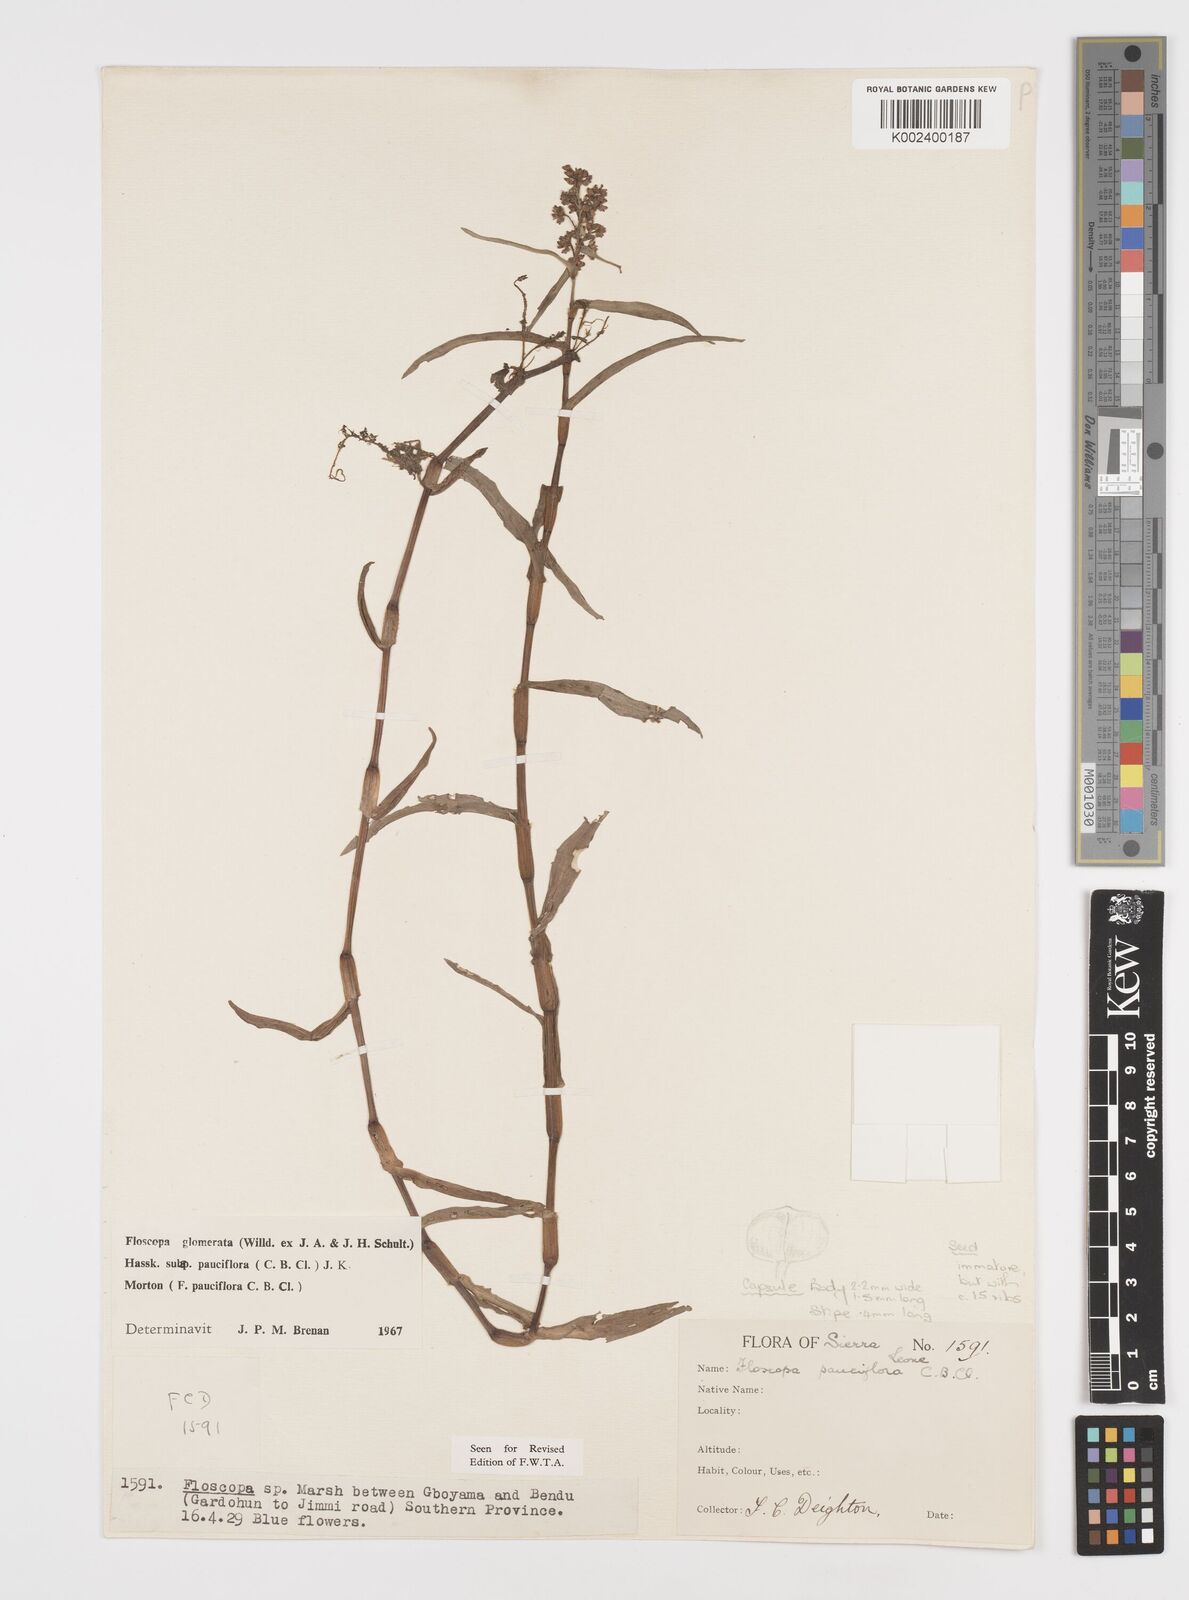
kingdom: Plantae
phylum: Tracheophyta
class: Liliopsida
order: Commelinales
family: Commelinaceae
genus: Floscopa
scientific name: Floscopa glomerata
